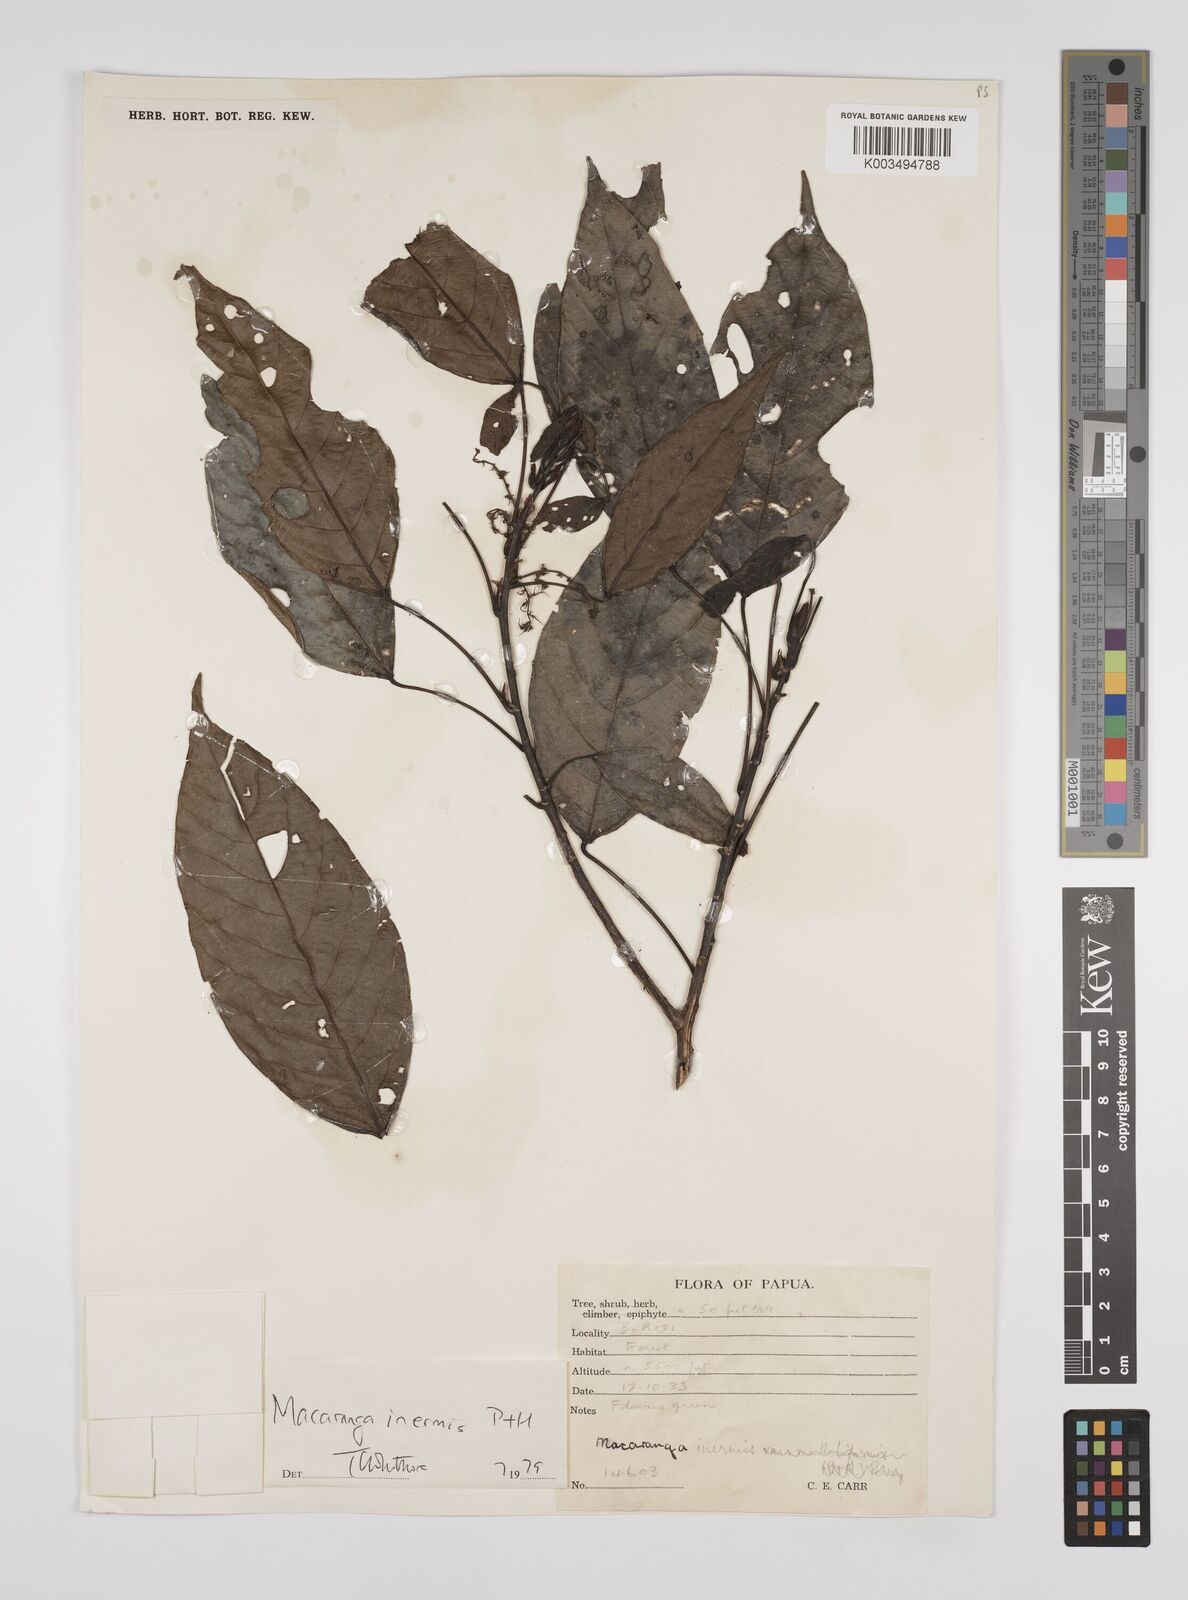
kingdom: Plantae
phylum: Tracheophyta
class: Magnoliopsida
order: Malpighiales
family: Euphorbiaceae
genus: Macaranga
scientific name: Macaranga inermis
